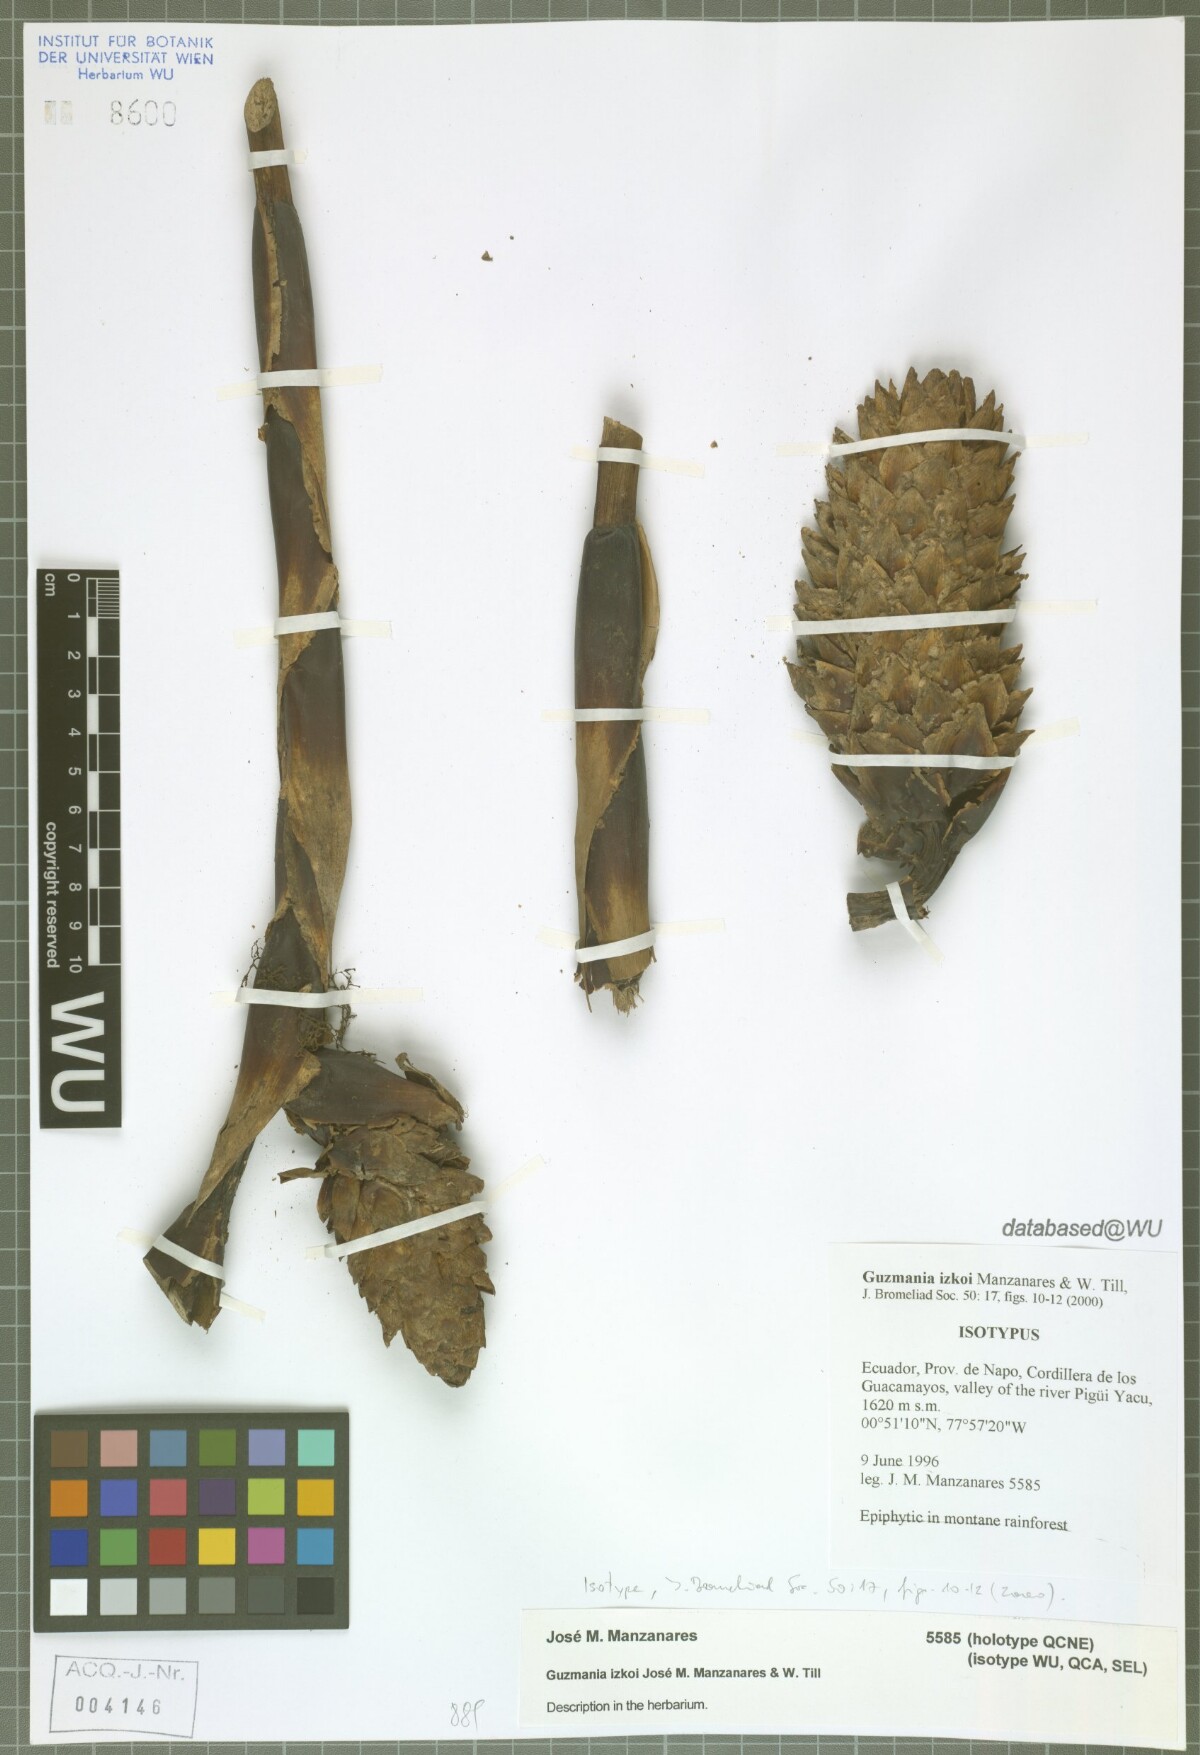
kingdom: Plantae
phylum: Tracheophyta
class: Liliopsida
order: Poales
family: Bromeliaceae
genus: Guzmania
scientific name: Guzmania izkoi
